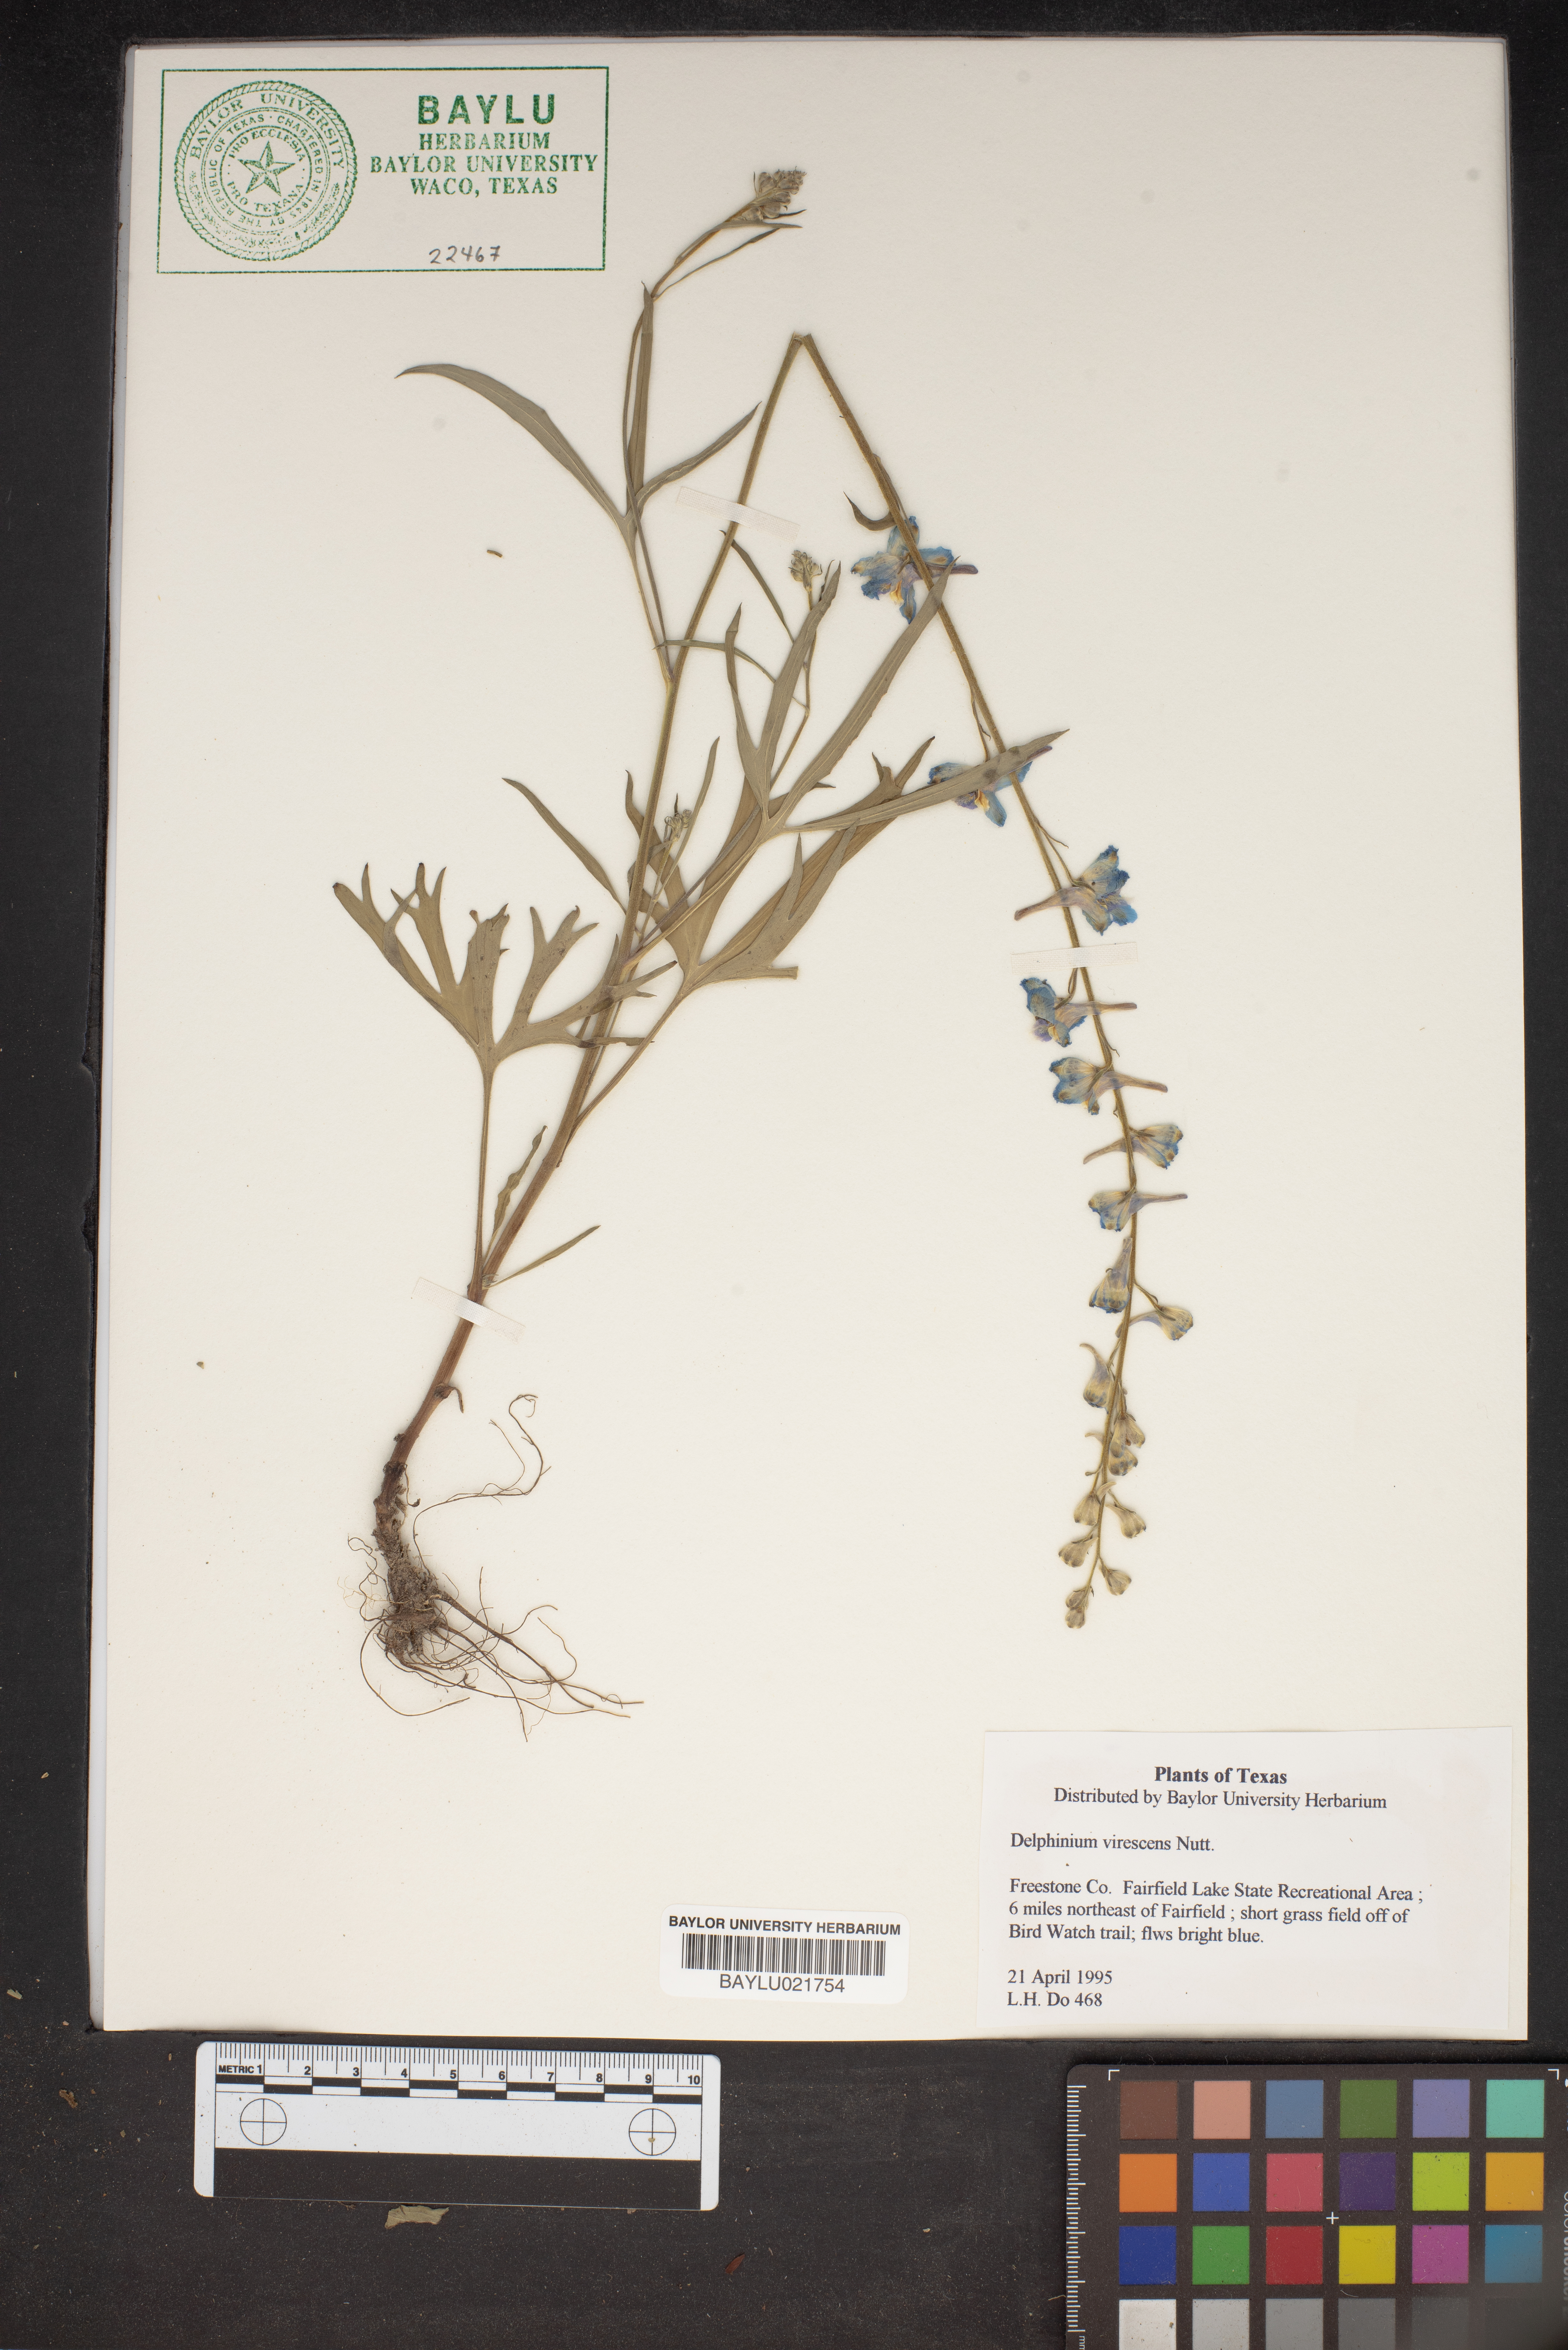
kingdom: Plantae
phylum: Tracheophyta
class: Magnoliopsida
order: Ranunculales
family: Ranunculaceae
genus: Delphinium
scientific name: Delphinium carolinianum
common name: Carolina larkspur
